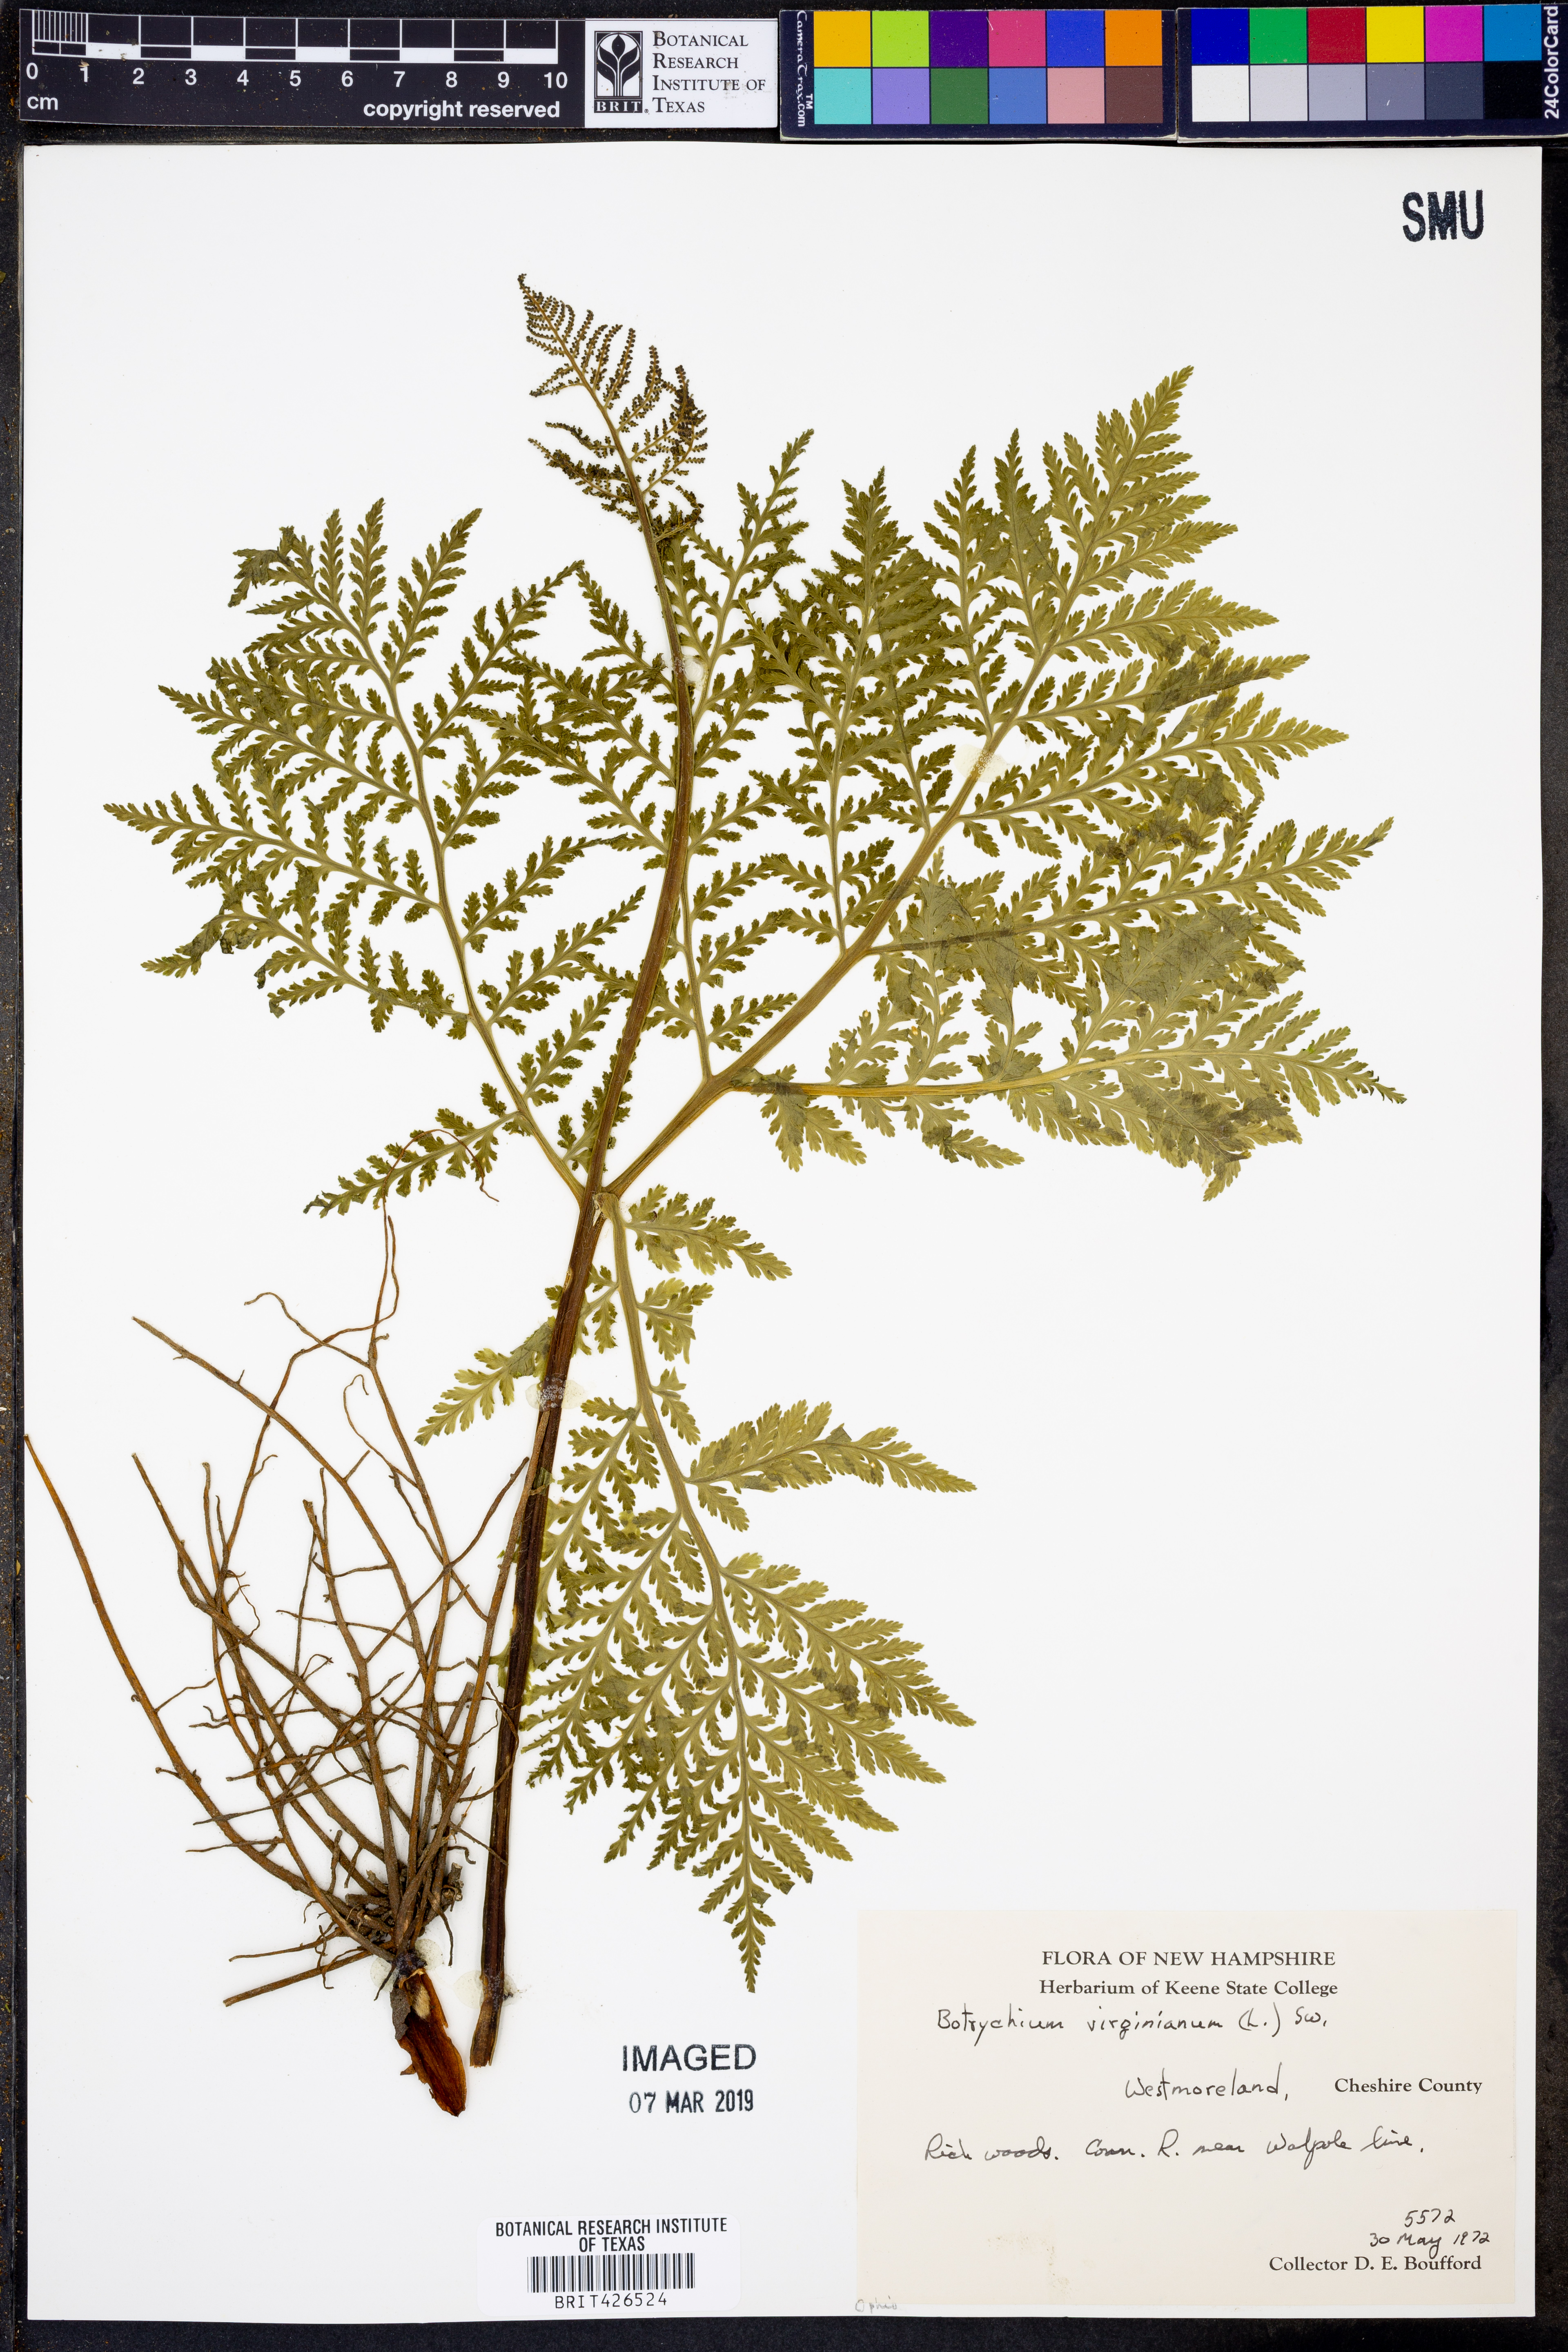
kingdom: Plantae
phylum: Tracheophyta
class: Polypodiopsida
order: Ophioglossales
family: Ophioglossaceae
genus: Botrypus
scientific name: Botrypus virginianus
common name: Common grapefern
